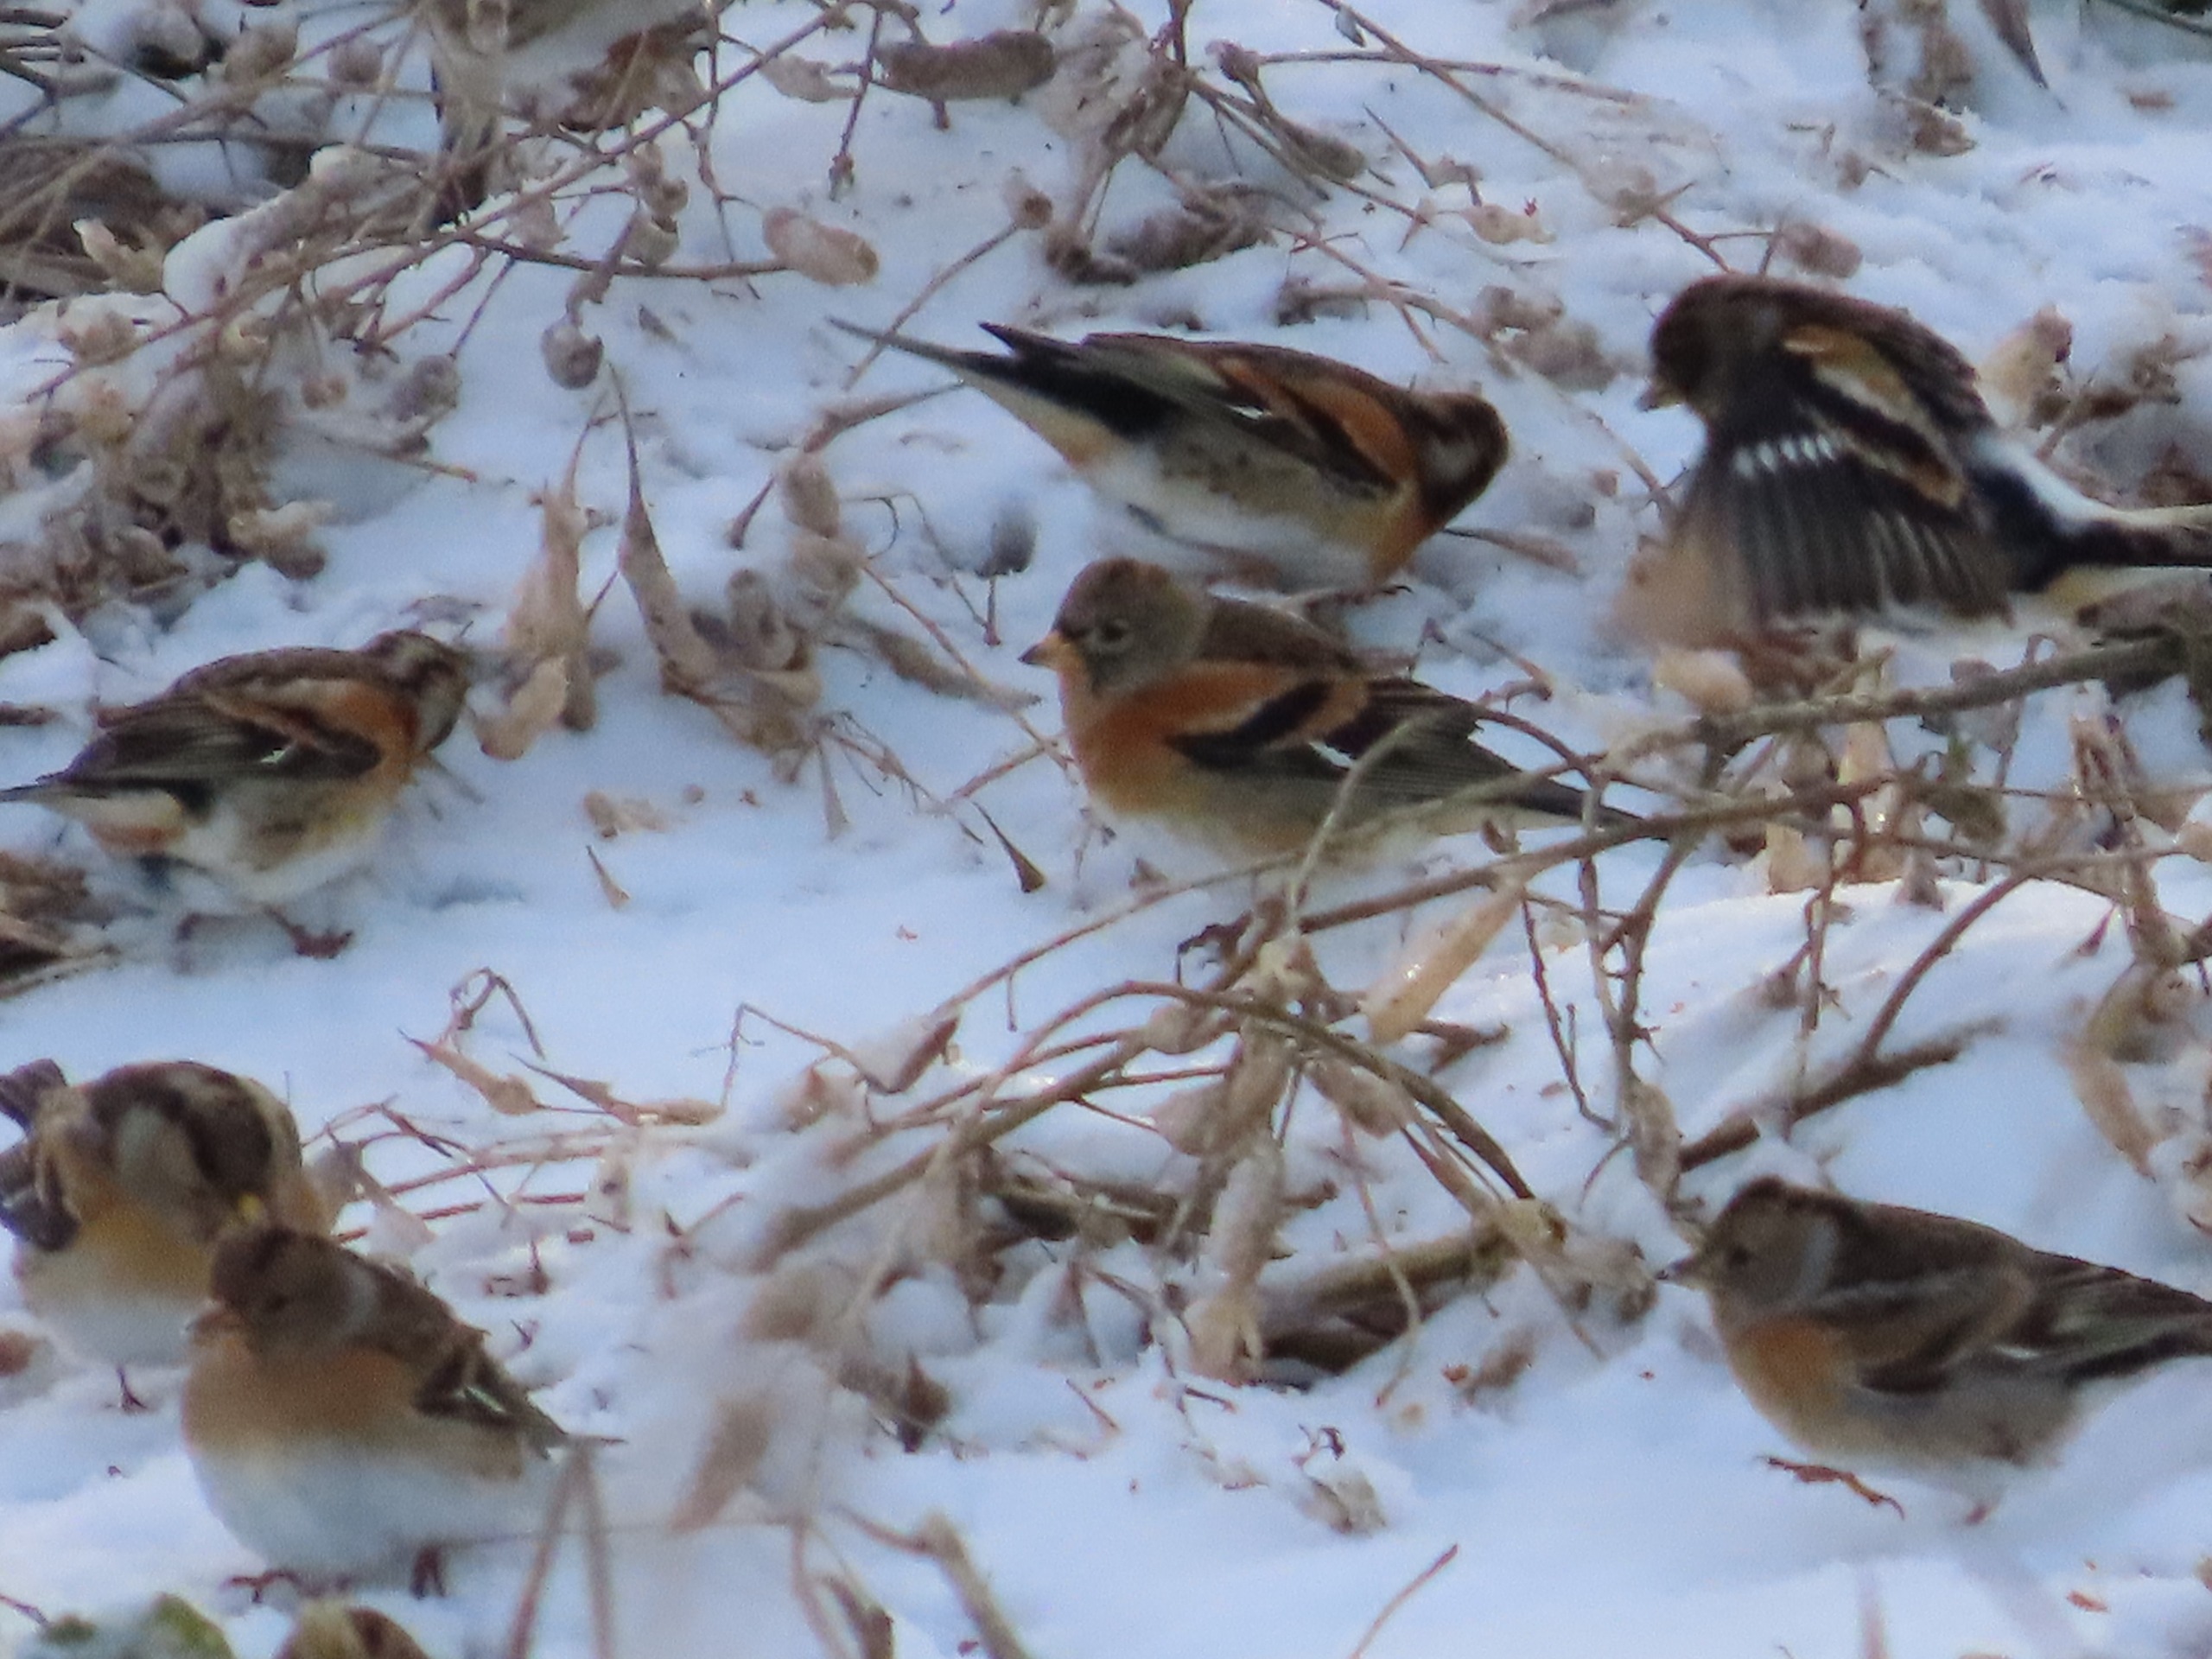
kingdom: Animalia
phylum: Chordata
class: Aves
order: Passeriformes
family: Fringillidae
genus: Fringilla
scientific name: Fringilla montifringilla
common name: Kvækerfinke
